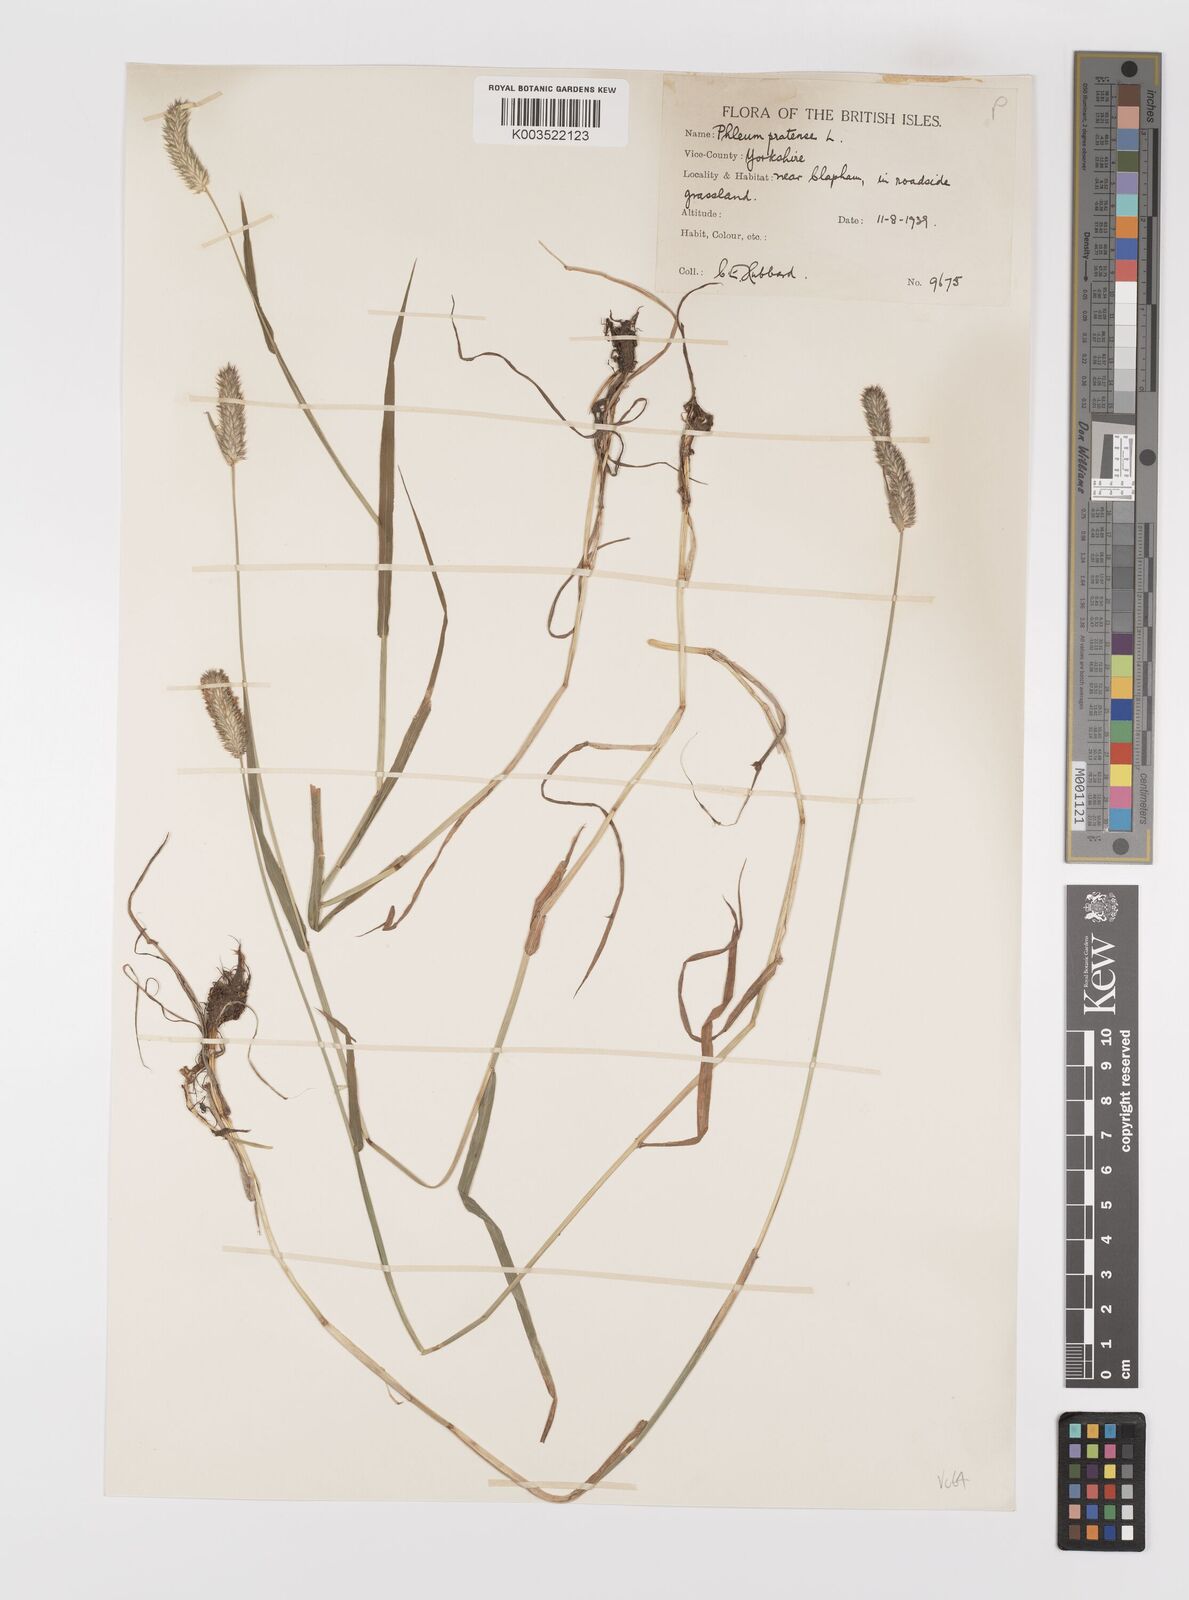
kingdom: Plantae
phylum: Tracheophyta
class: Liliopsida
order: Poales
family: Poaceae
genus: Phleum
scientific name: Phleum pratense
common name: Timothy grass
